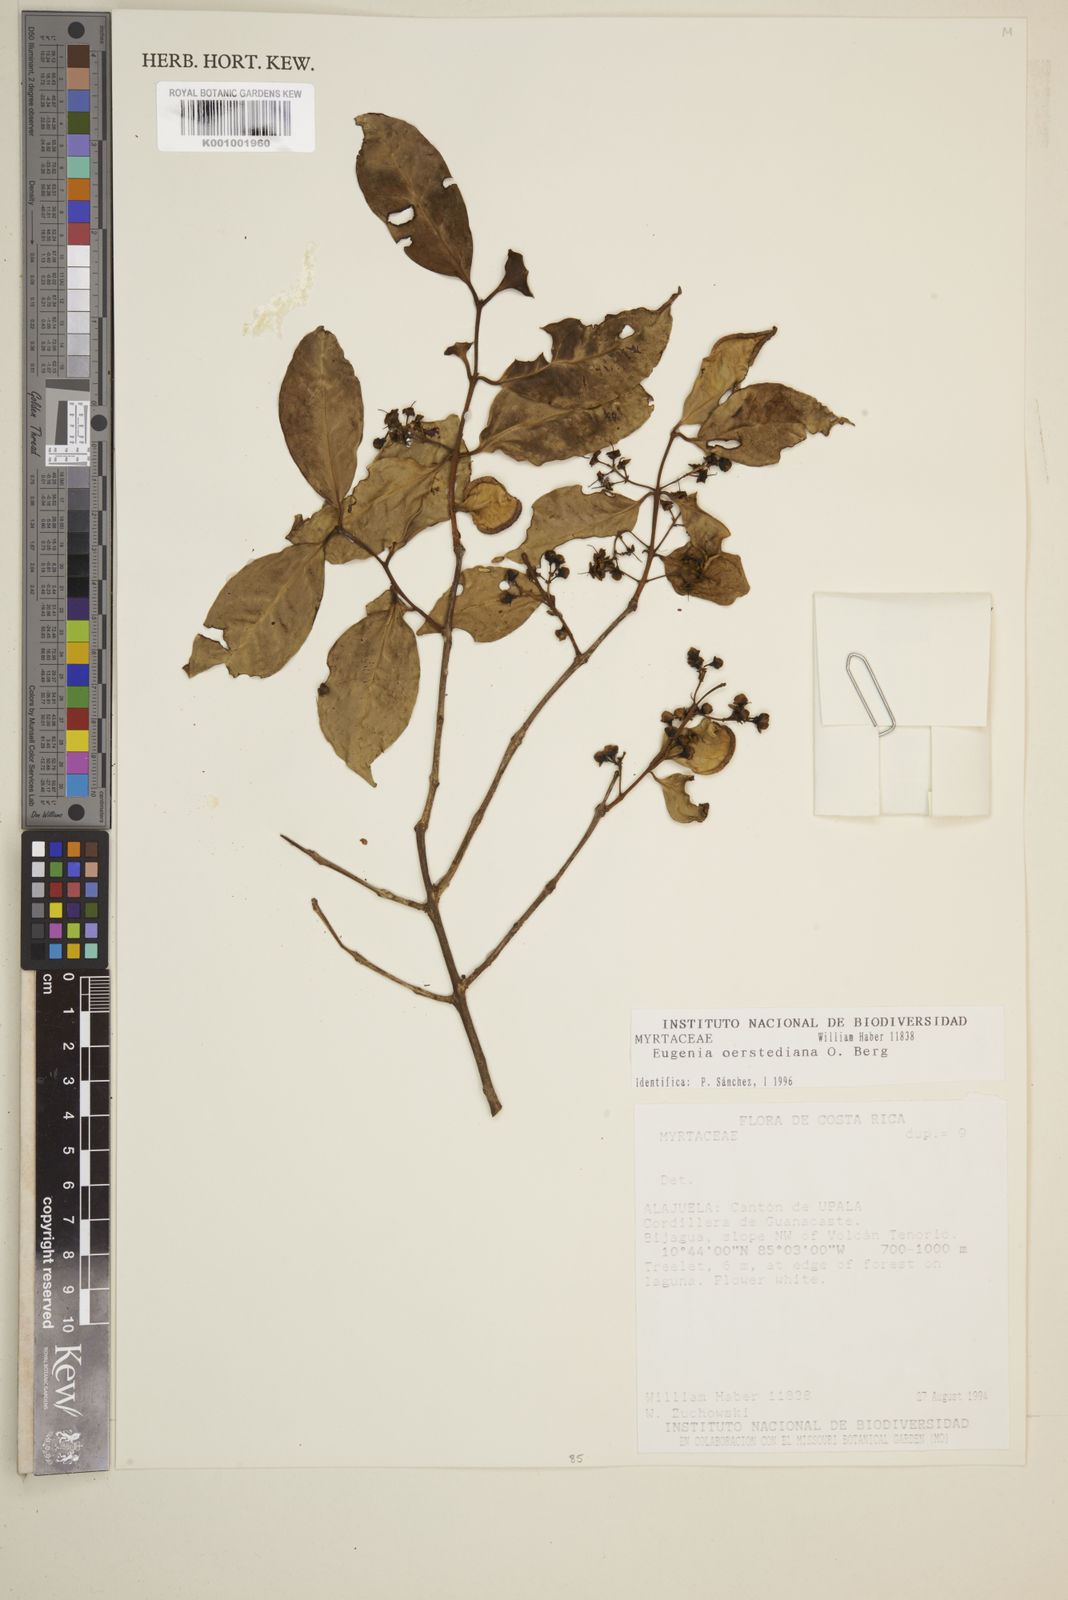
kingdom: Plantae
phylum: Tracheophyta
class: Magnoliopsida
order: Myrtales
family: Myrtaceae
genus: Eugenia
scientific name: Eugenia oerstediana
